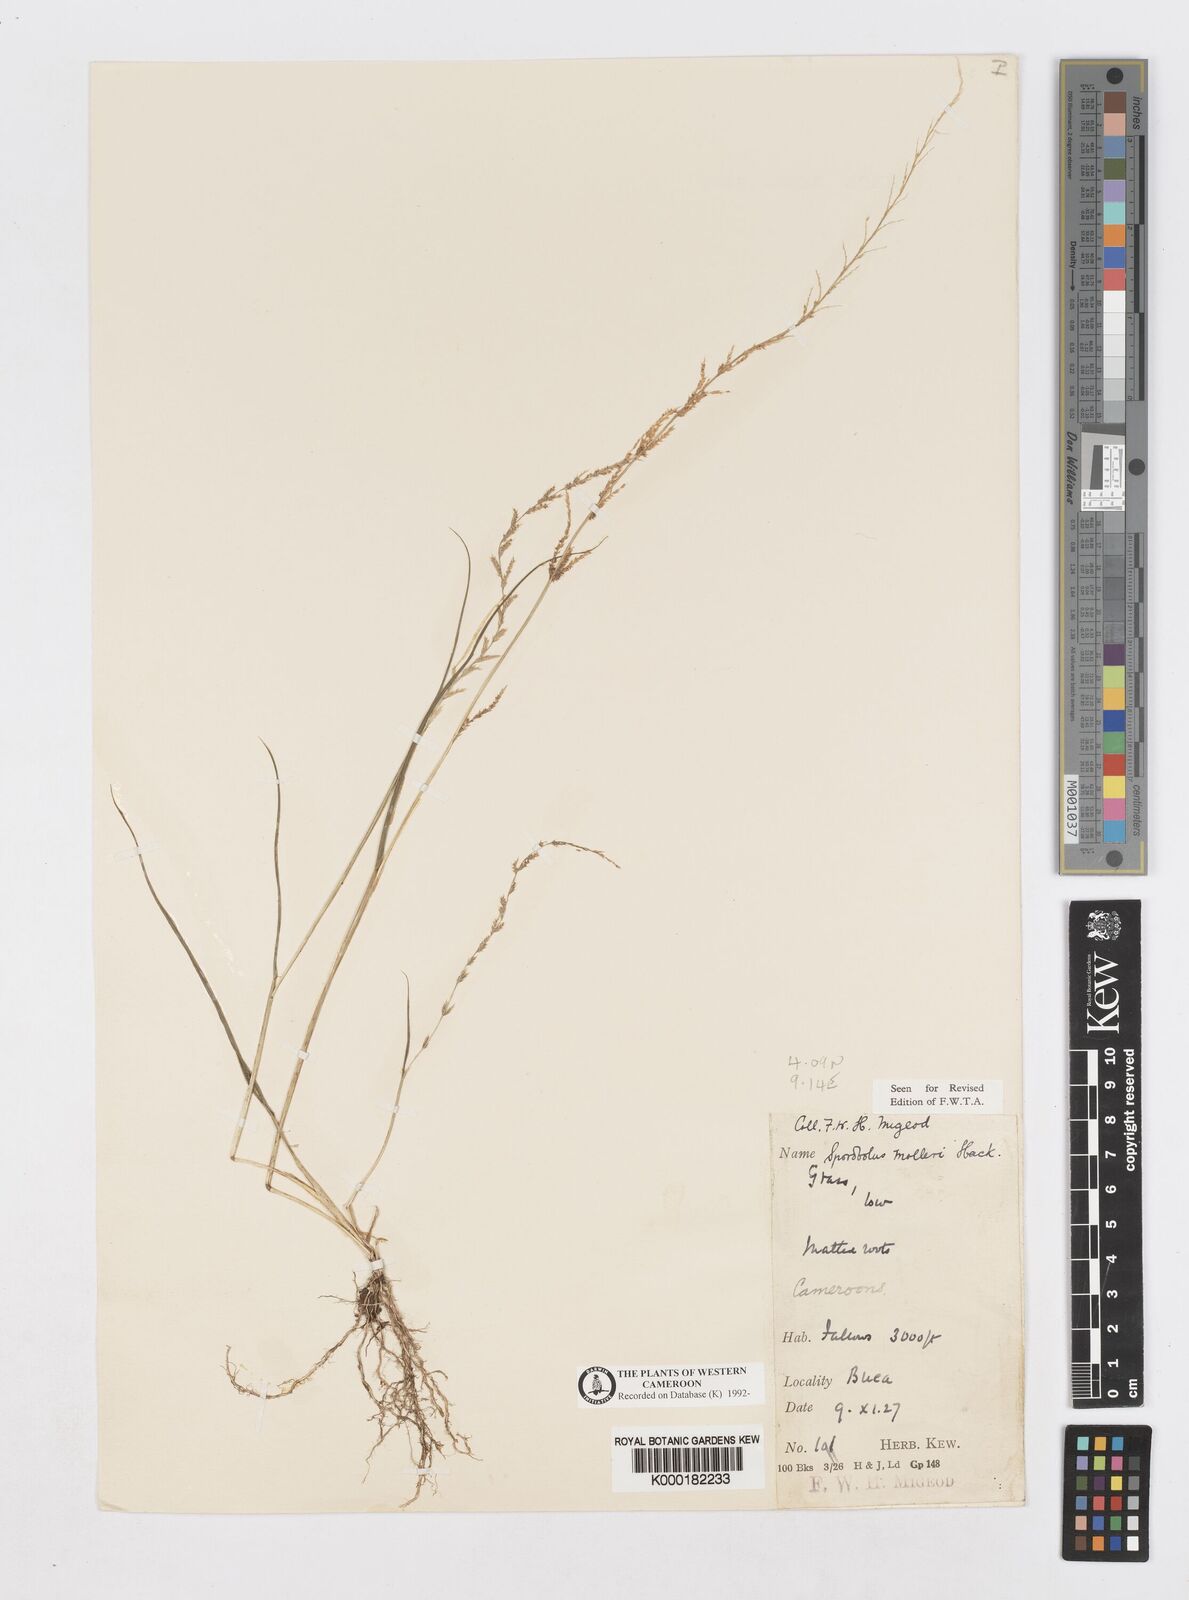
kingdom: Plantae
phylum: Tracheophyta
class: Liliopsida
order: Poales
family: Poaceae
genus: Sporobolus
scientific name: Sporobolus molleri
